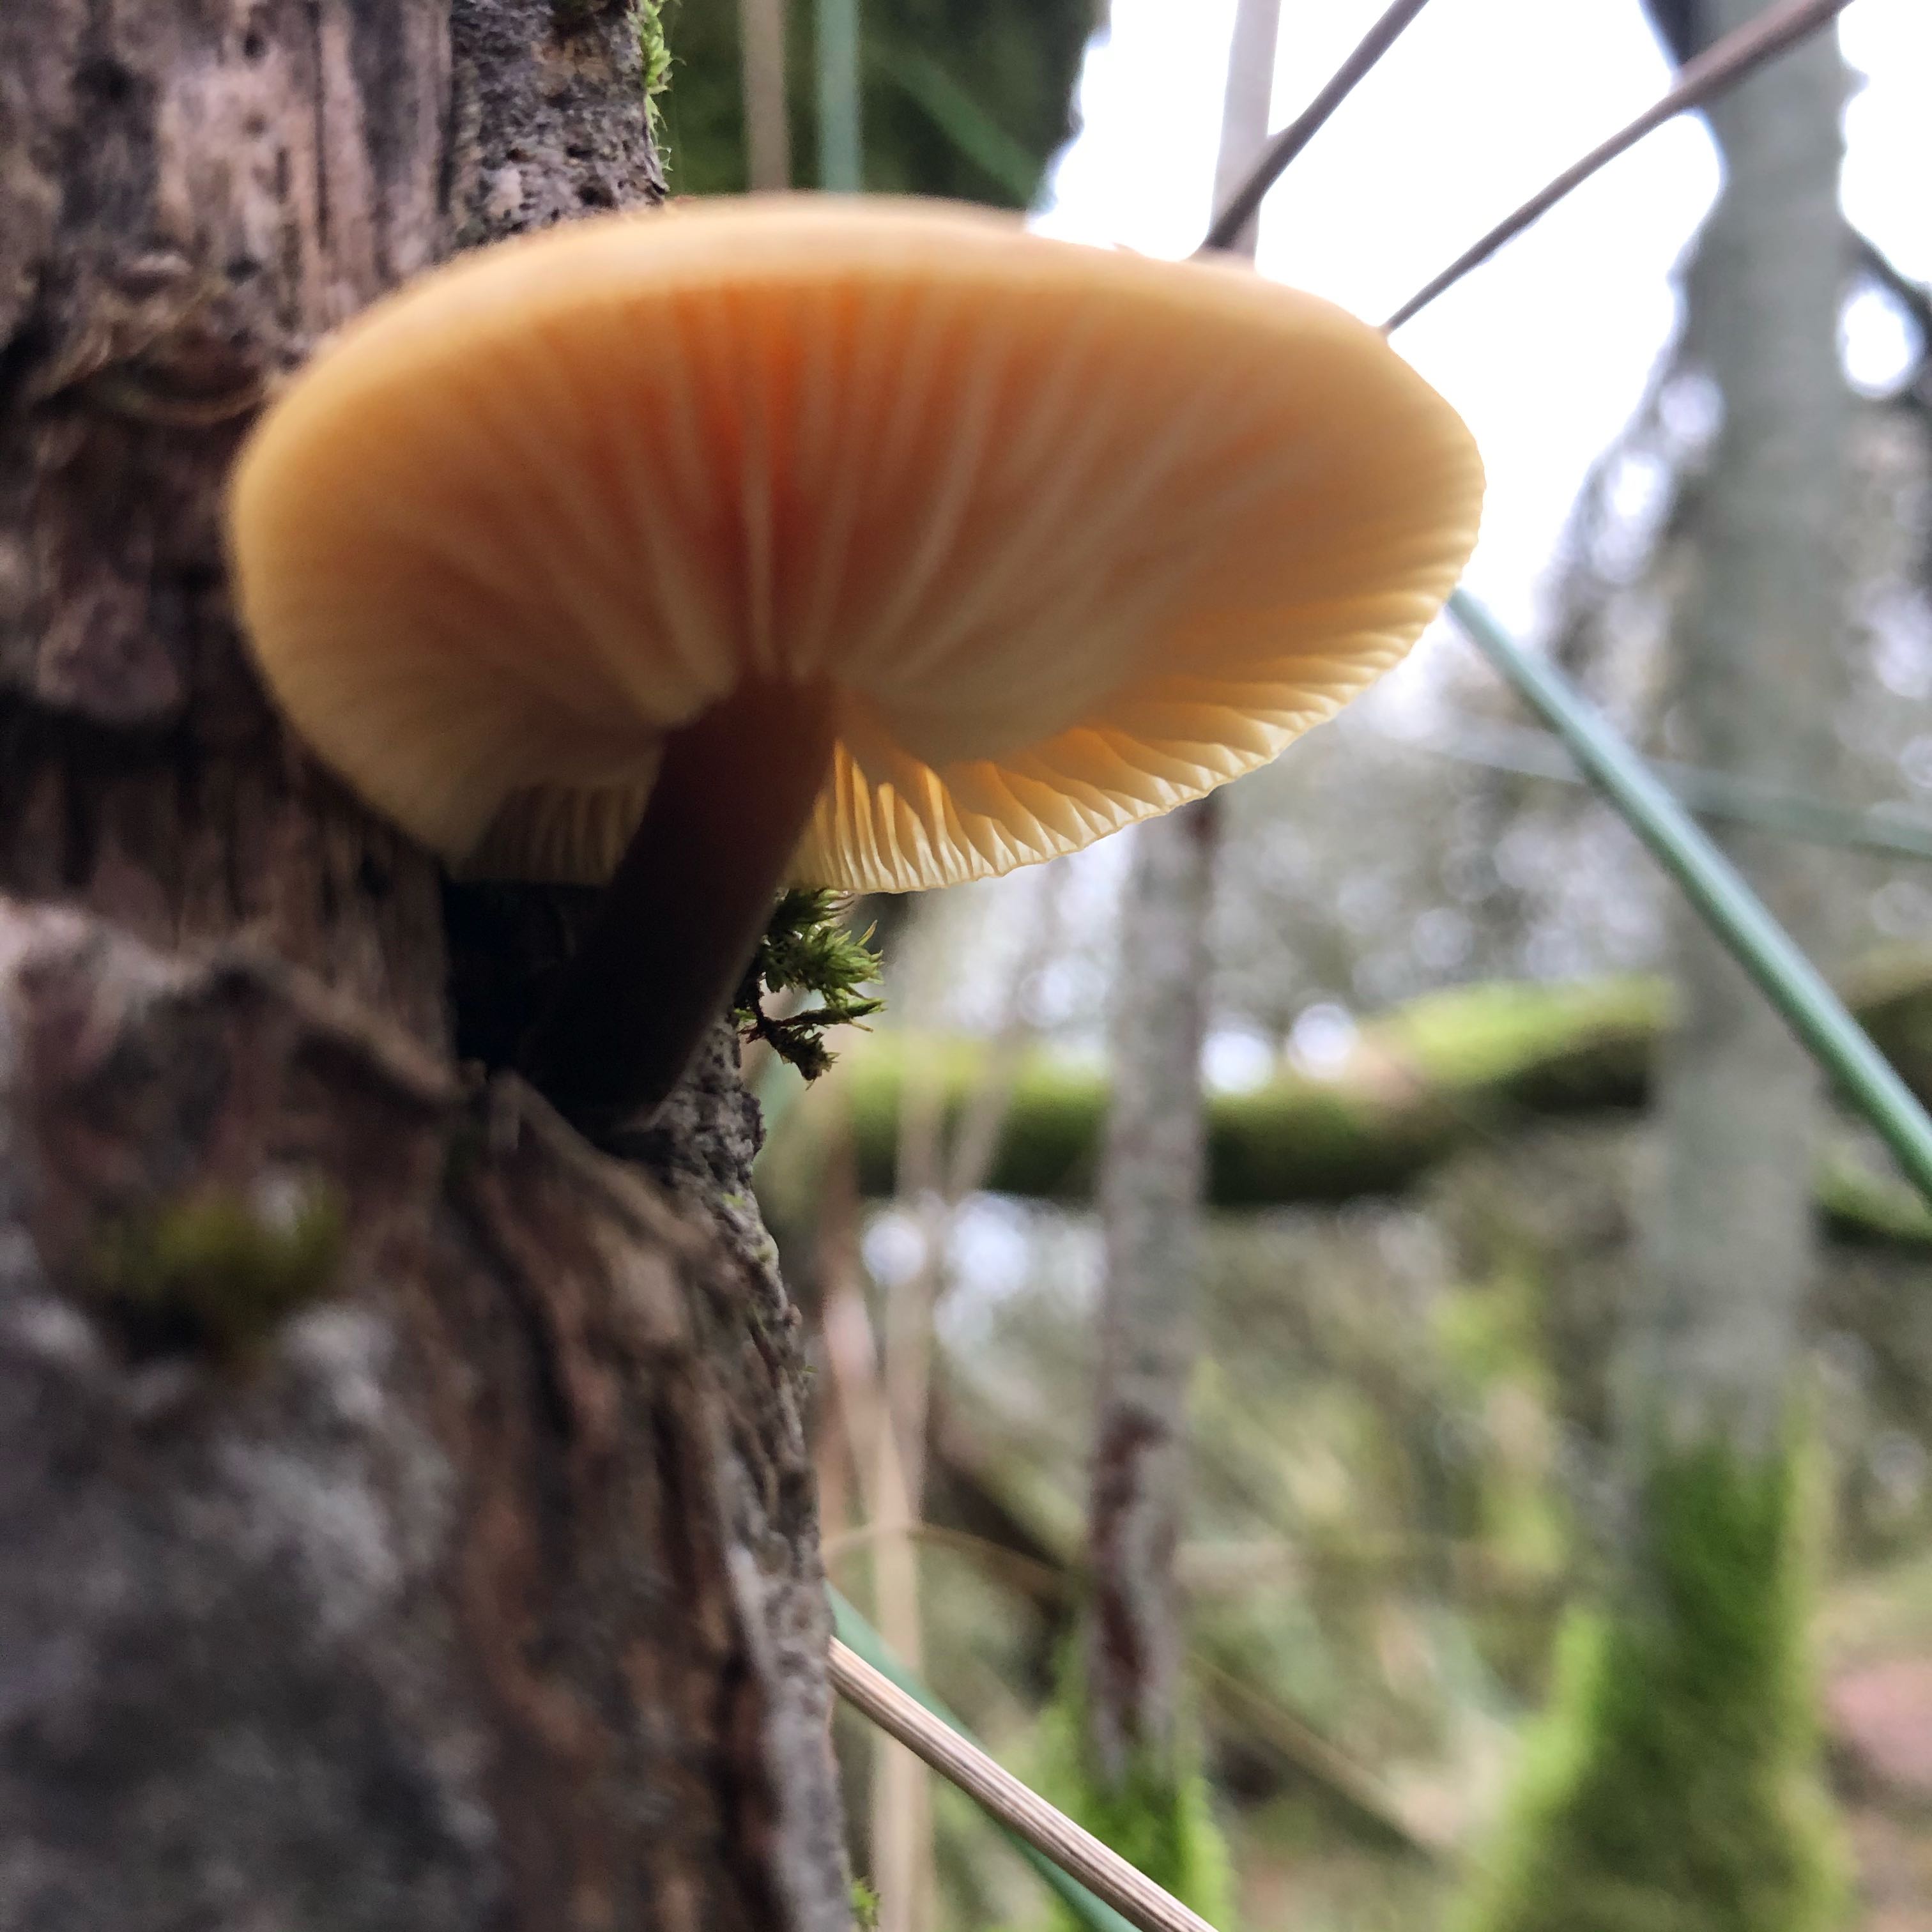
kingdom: Fungi
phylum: Basidiomycota
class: Agaricomycetes
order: Agaricales
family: Physalacriaceae
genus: Flammulina
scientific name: Flammulina
